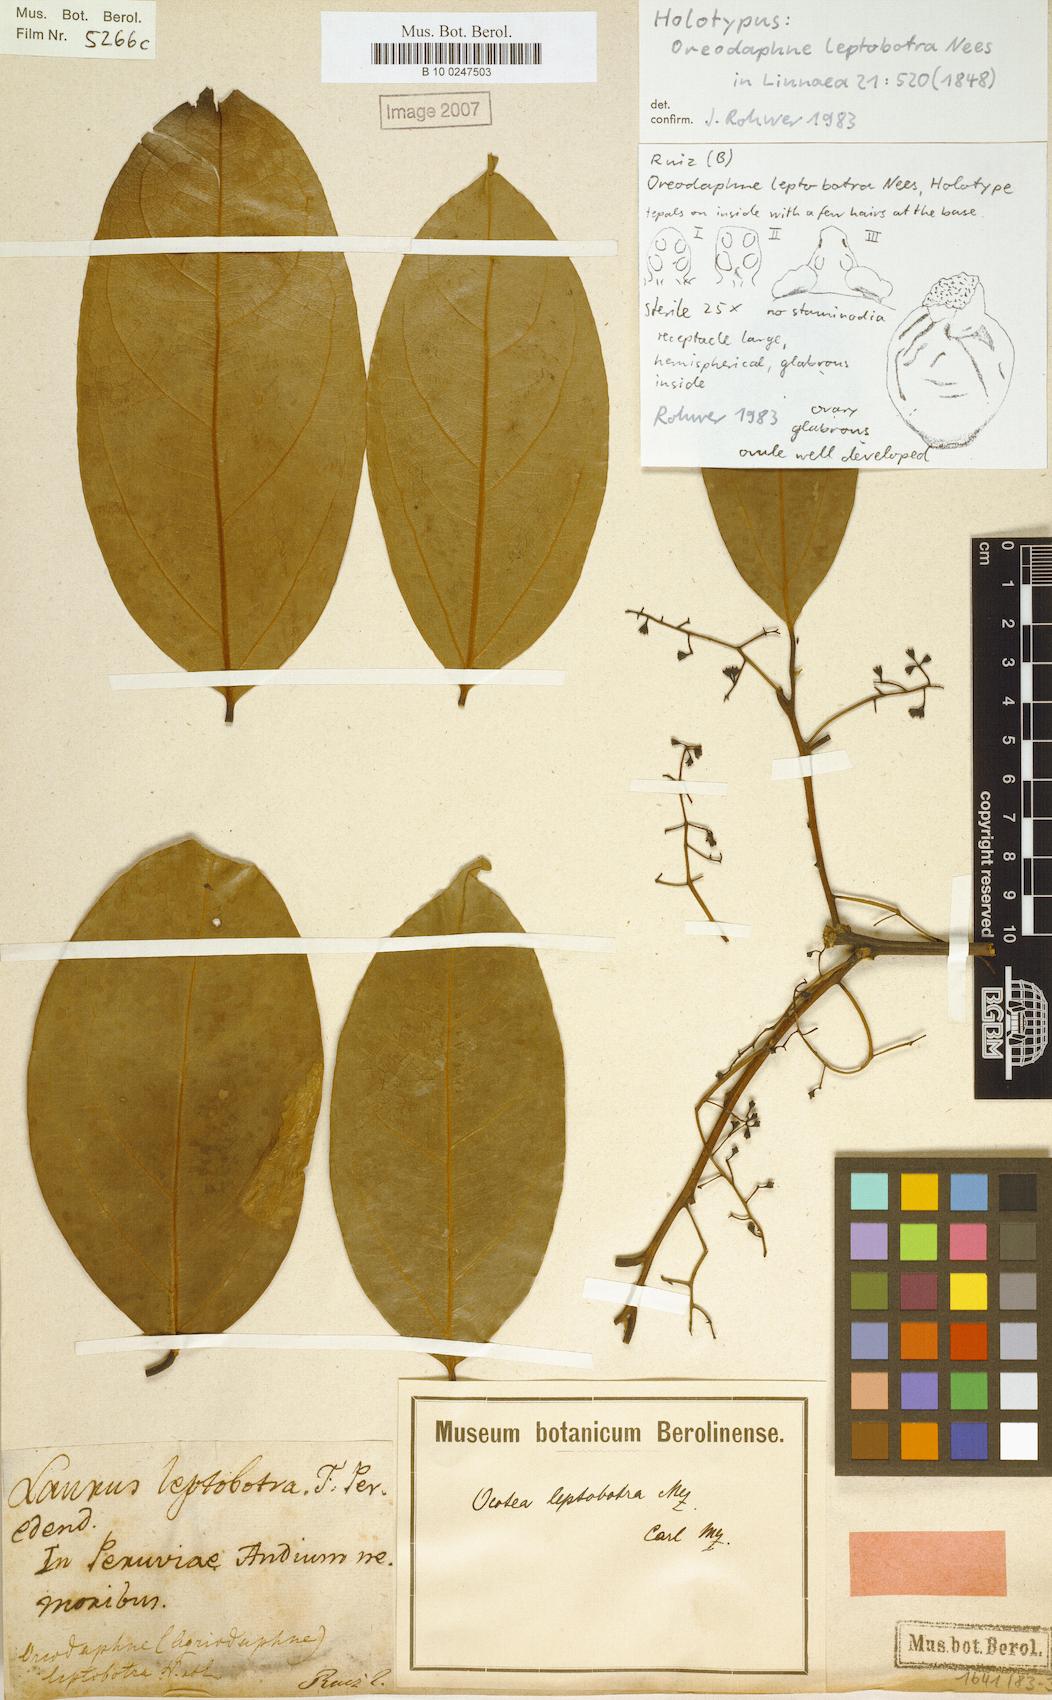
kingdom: Plantae
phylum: Tracheophyta
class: Magnoliopsida
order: Laurales
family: Lauraceae
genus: Ocotea
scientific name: Ocotea leptobotra
